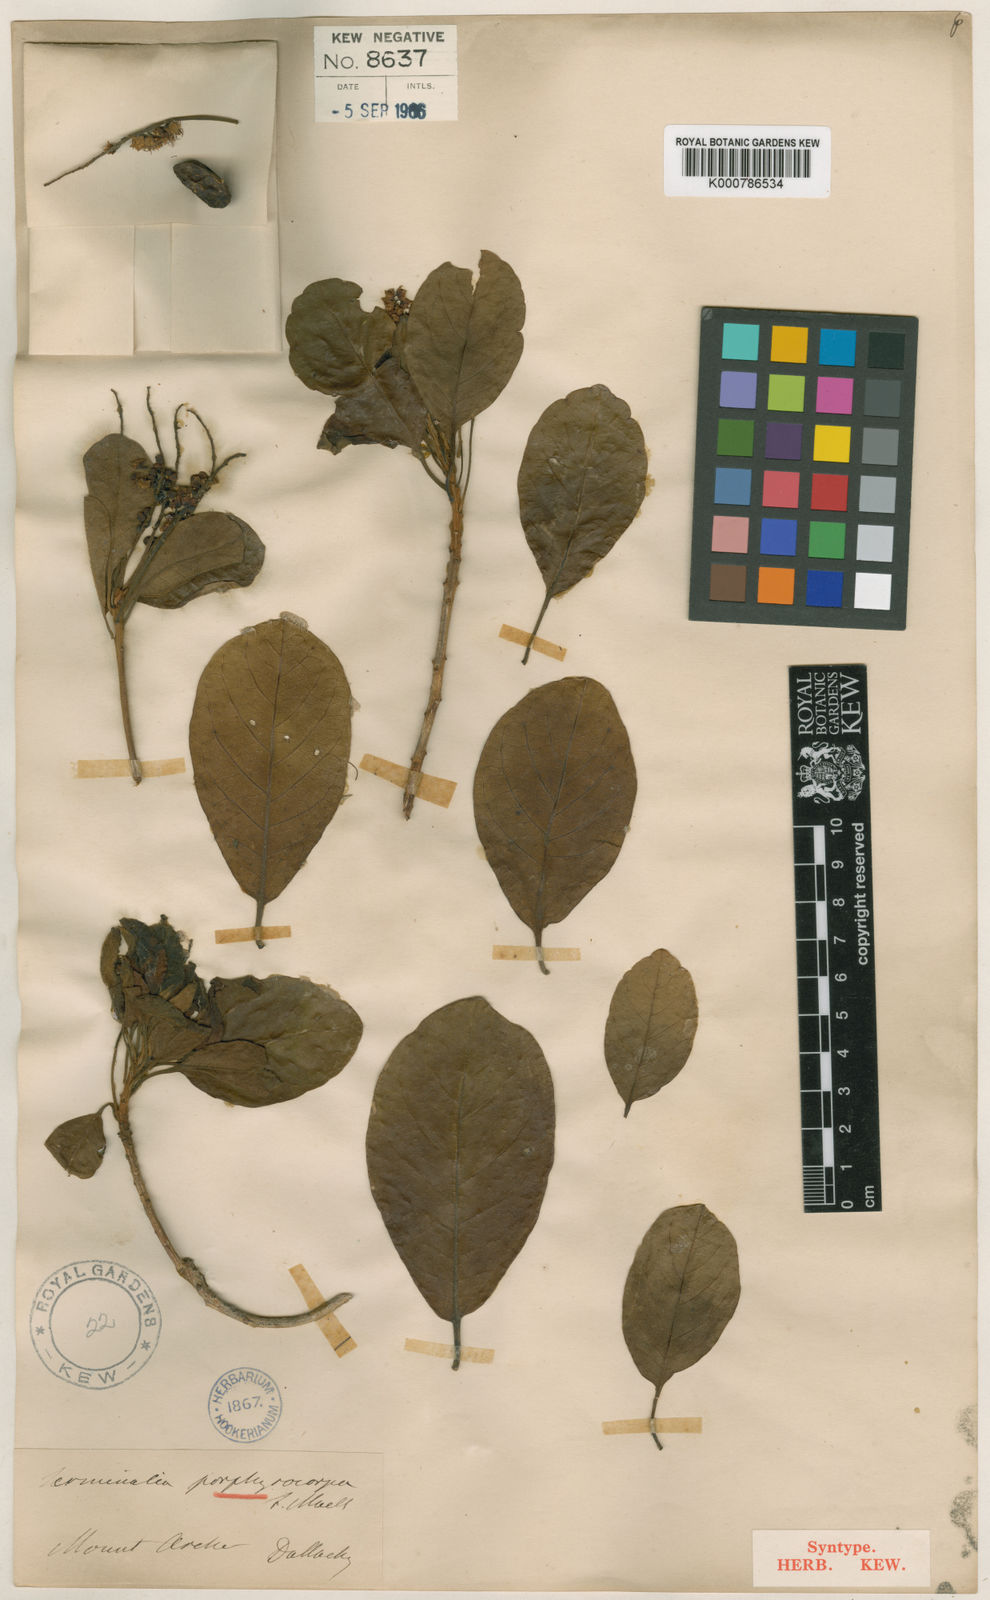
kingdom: Plantae
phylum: Tracheophyta
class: Magnoliopsida
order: Myrtales
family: Combretaceae
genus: Terminalia
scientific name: Terminalia porphyrocarpa
